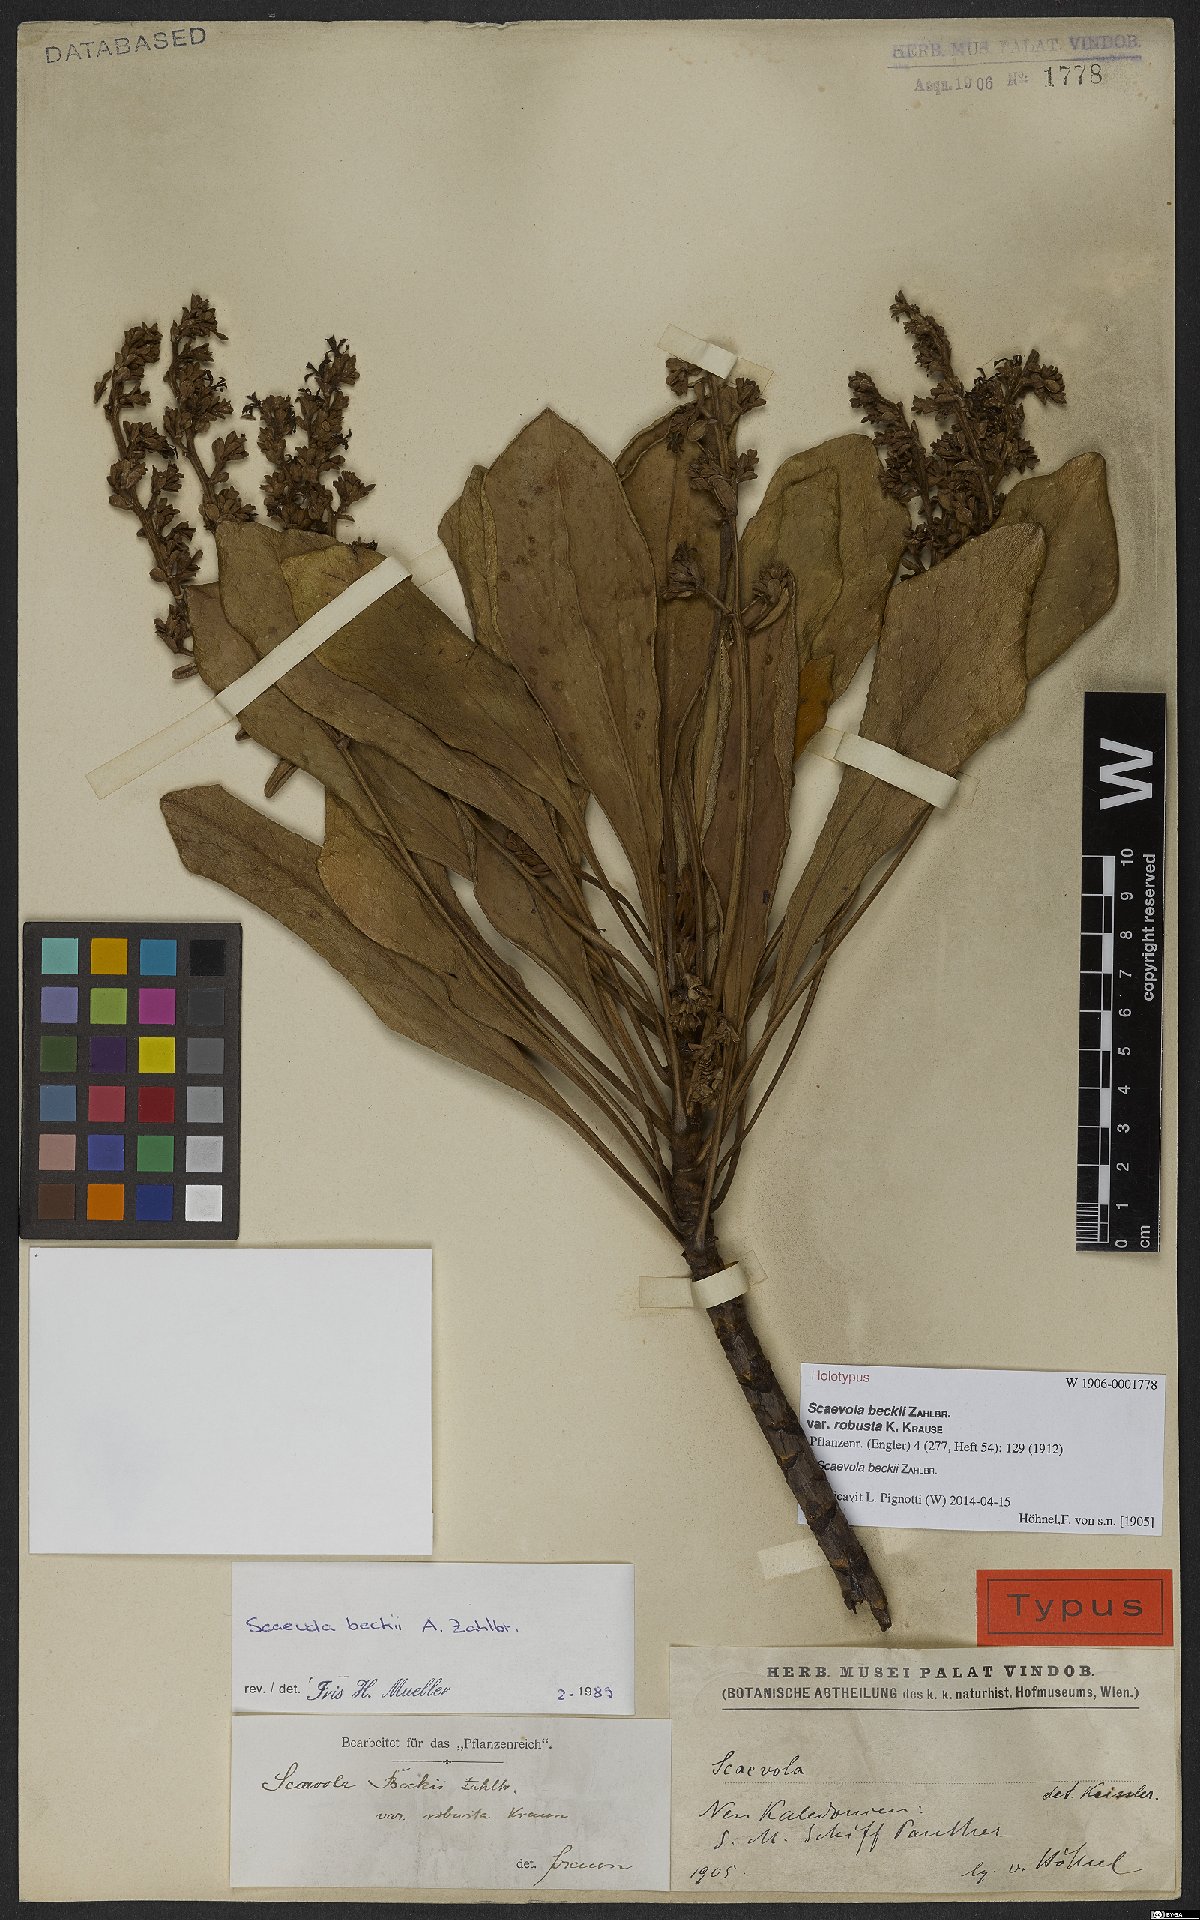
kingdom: Plantae
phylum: Tracheophyta
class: Magnoliopsida
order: Asterales
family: Goodeniaceae
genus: Scaevola
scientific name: Scaevola beckii
